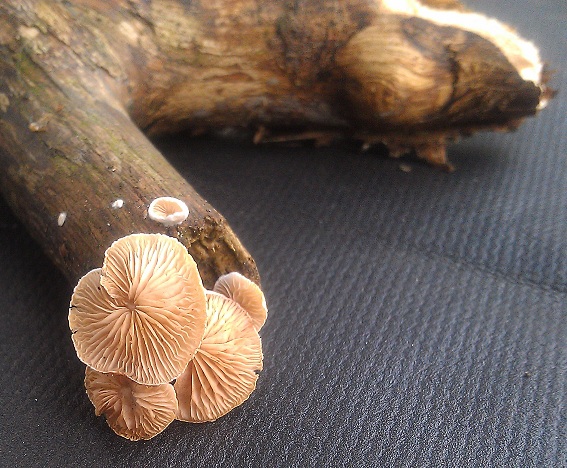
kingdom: Fungi
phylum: Basidiomycota
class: Agaricomycetes
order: Agaricales
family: Crepidotaceae
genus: Crepidotus
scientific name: Crepidotus cesatii
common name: almindelig muslingesvamp
